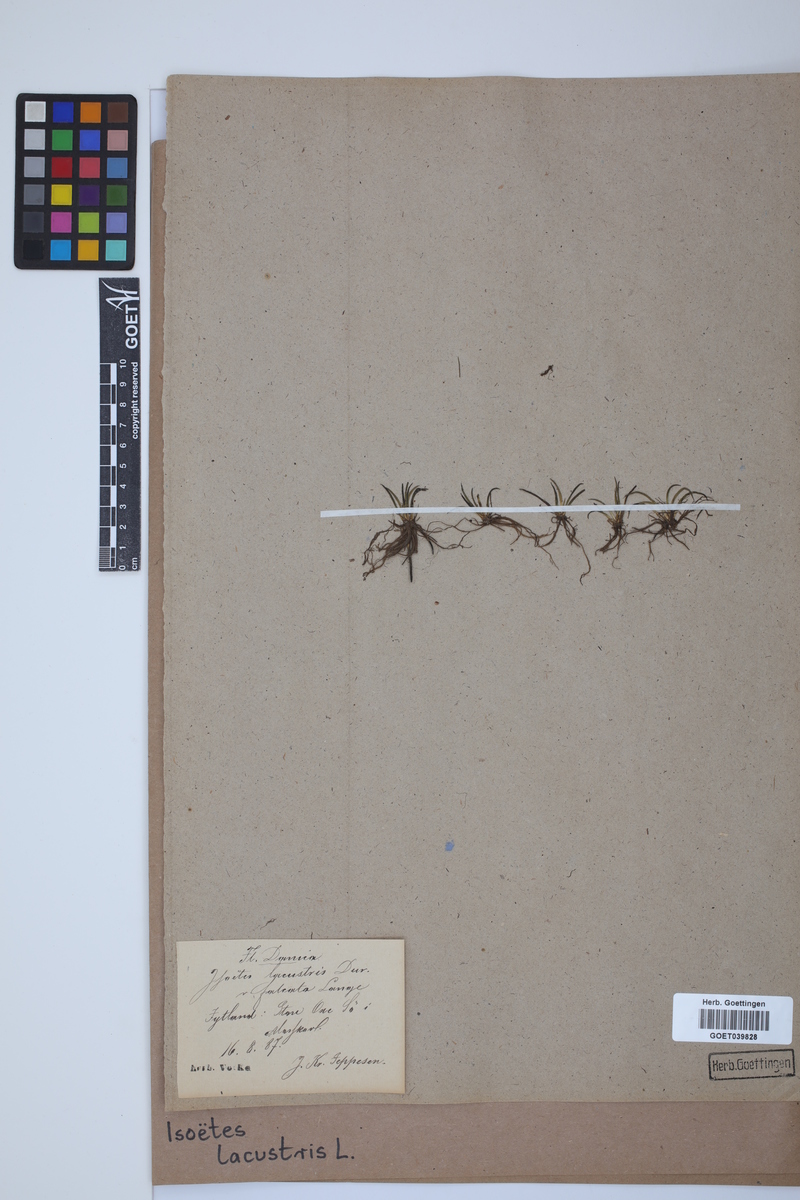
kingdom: Plantae
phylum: Tracheophyta
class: Lycopodiopsida
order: Isoetales
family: Isoetaceae
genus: Isoetes
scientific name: Isoetes lacustris
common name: Common quillwort
